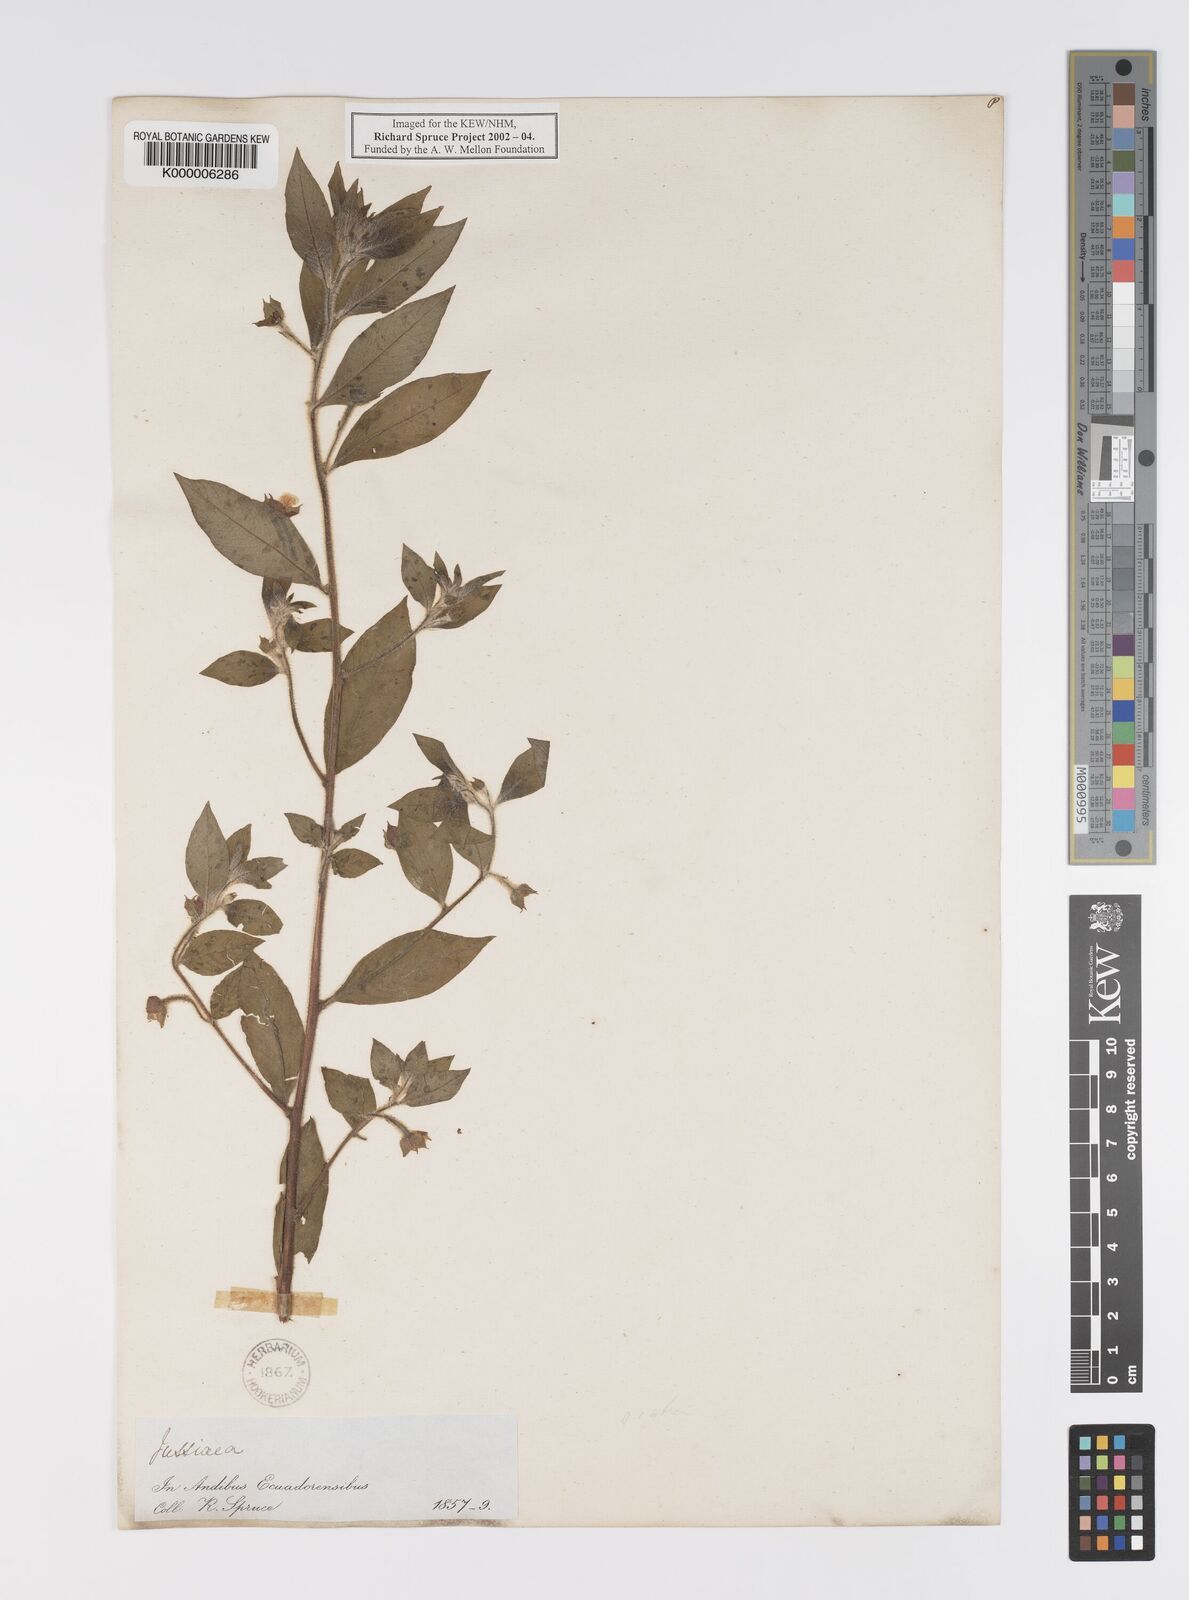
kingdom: Plantae
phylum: Tracheophyta
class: Magnoliopsida
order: Myrtales
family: Onagraceae
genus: Ludwigia
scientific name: Ludwigia octovalvis
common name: Water-primrose
